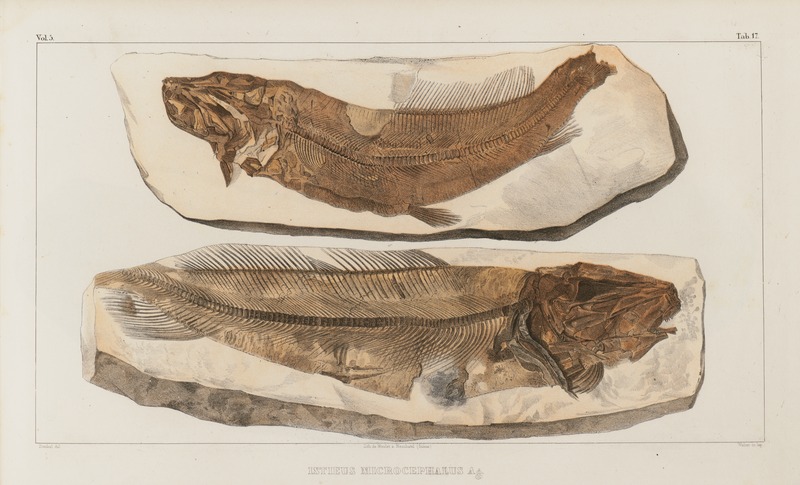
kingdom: Animalia
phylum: Chordata
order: Albuliformes
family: Albulidae
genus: Istieus
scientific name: Istieus grandis
